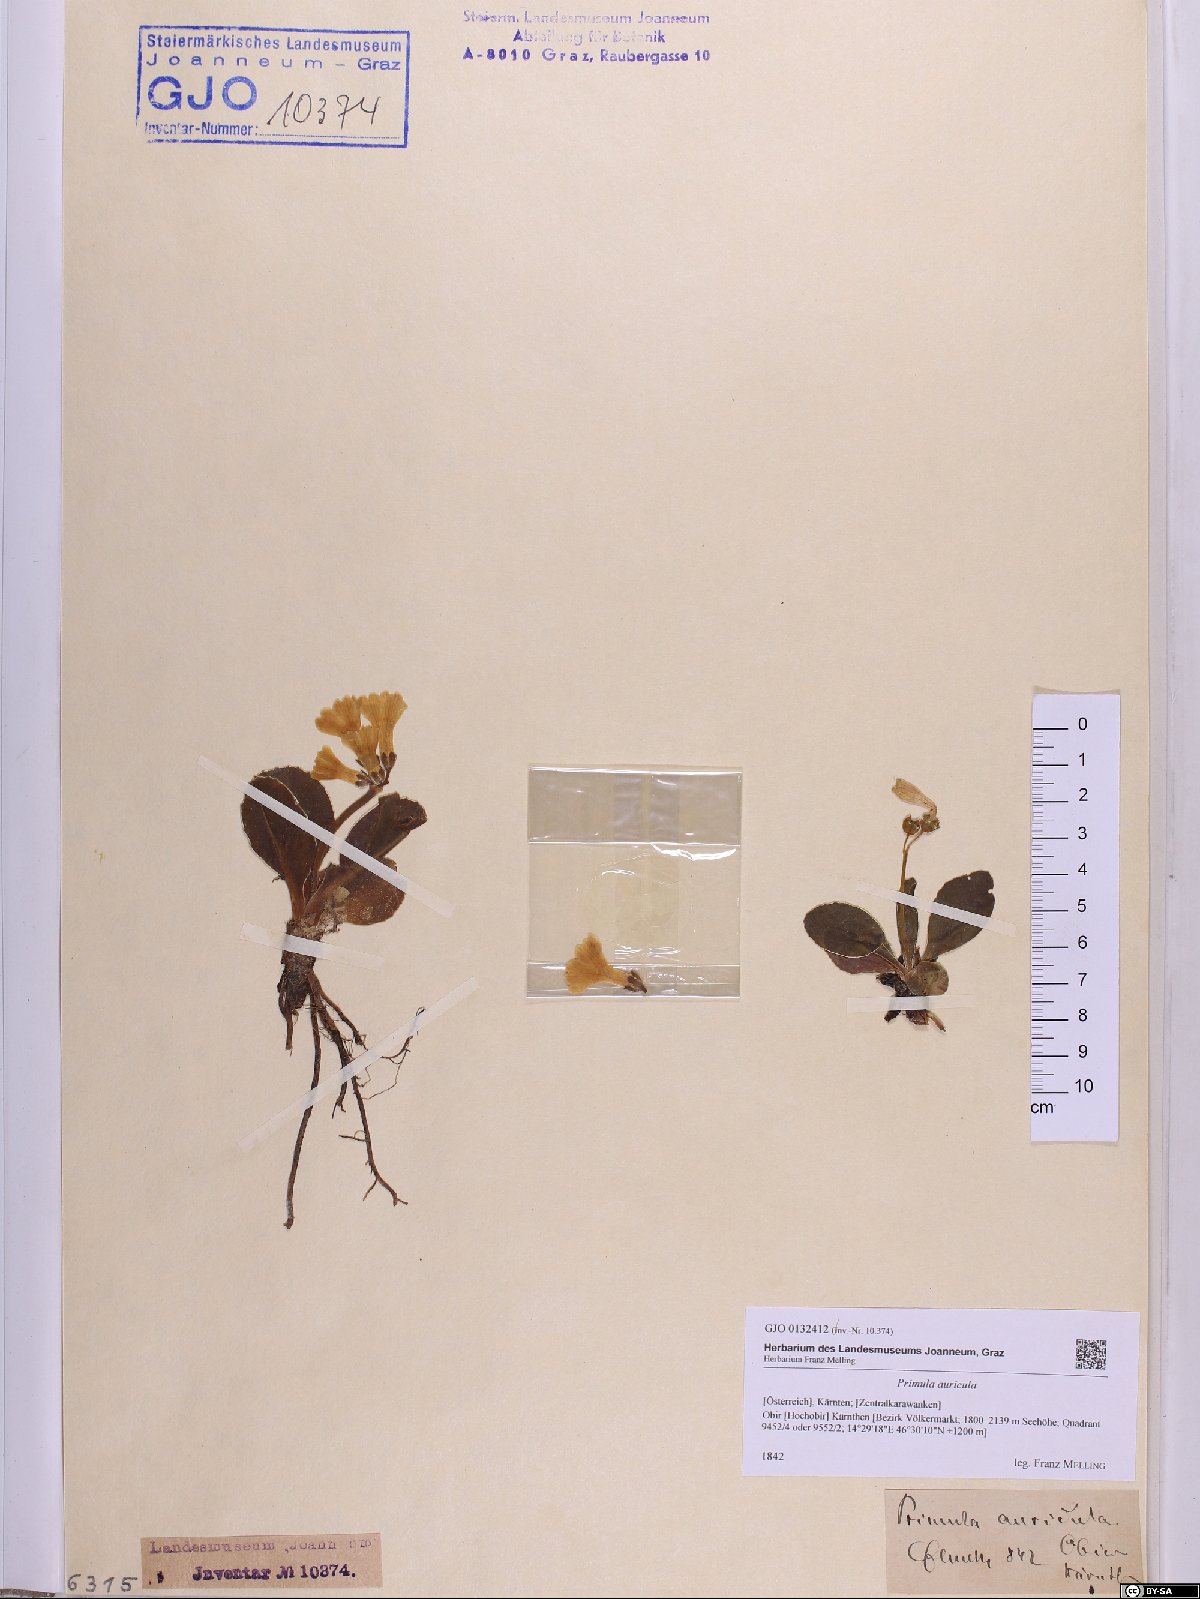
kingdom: Plantae
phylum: Tracheophyta
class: Magnoliopsida
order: Ericales
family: Primulaceae
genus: Primula
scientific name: Primula auricula
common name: Auricula
